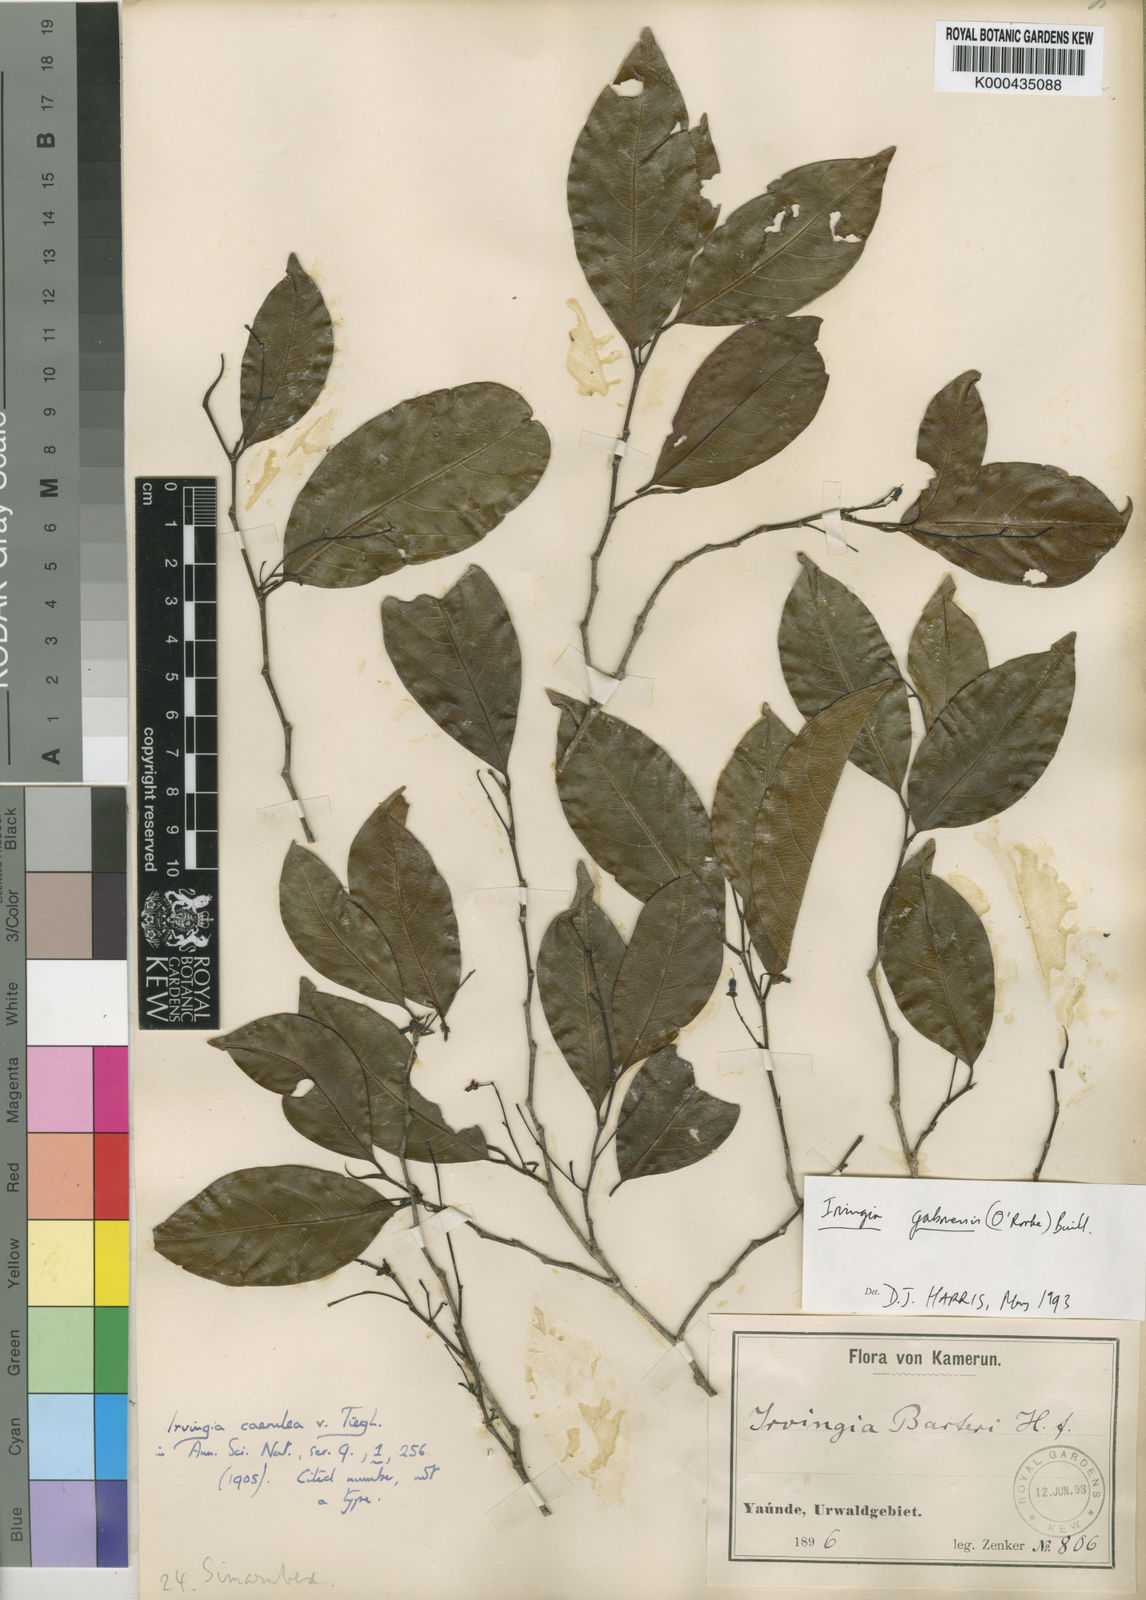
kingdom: Plantae
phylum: Tracheophyta
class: Magnoliopsida
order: Malpighiales
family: Irvingiaceae
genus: Irvingia
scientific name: Irvingia gabonensis
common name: Rainy season bush-mango
